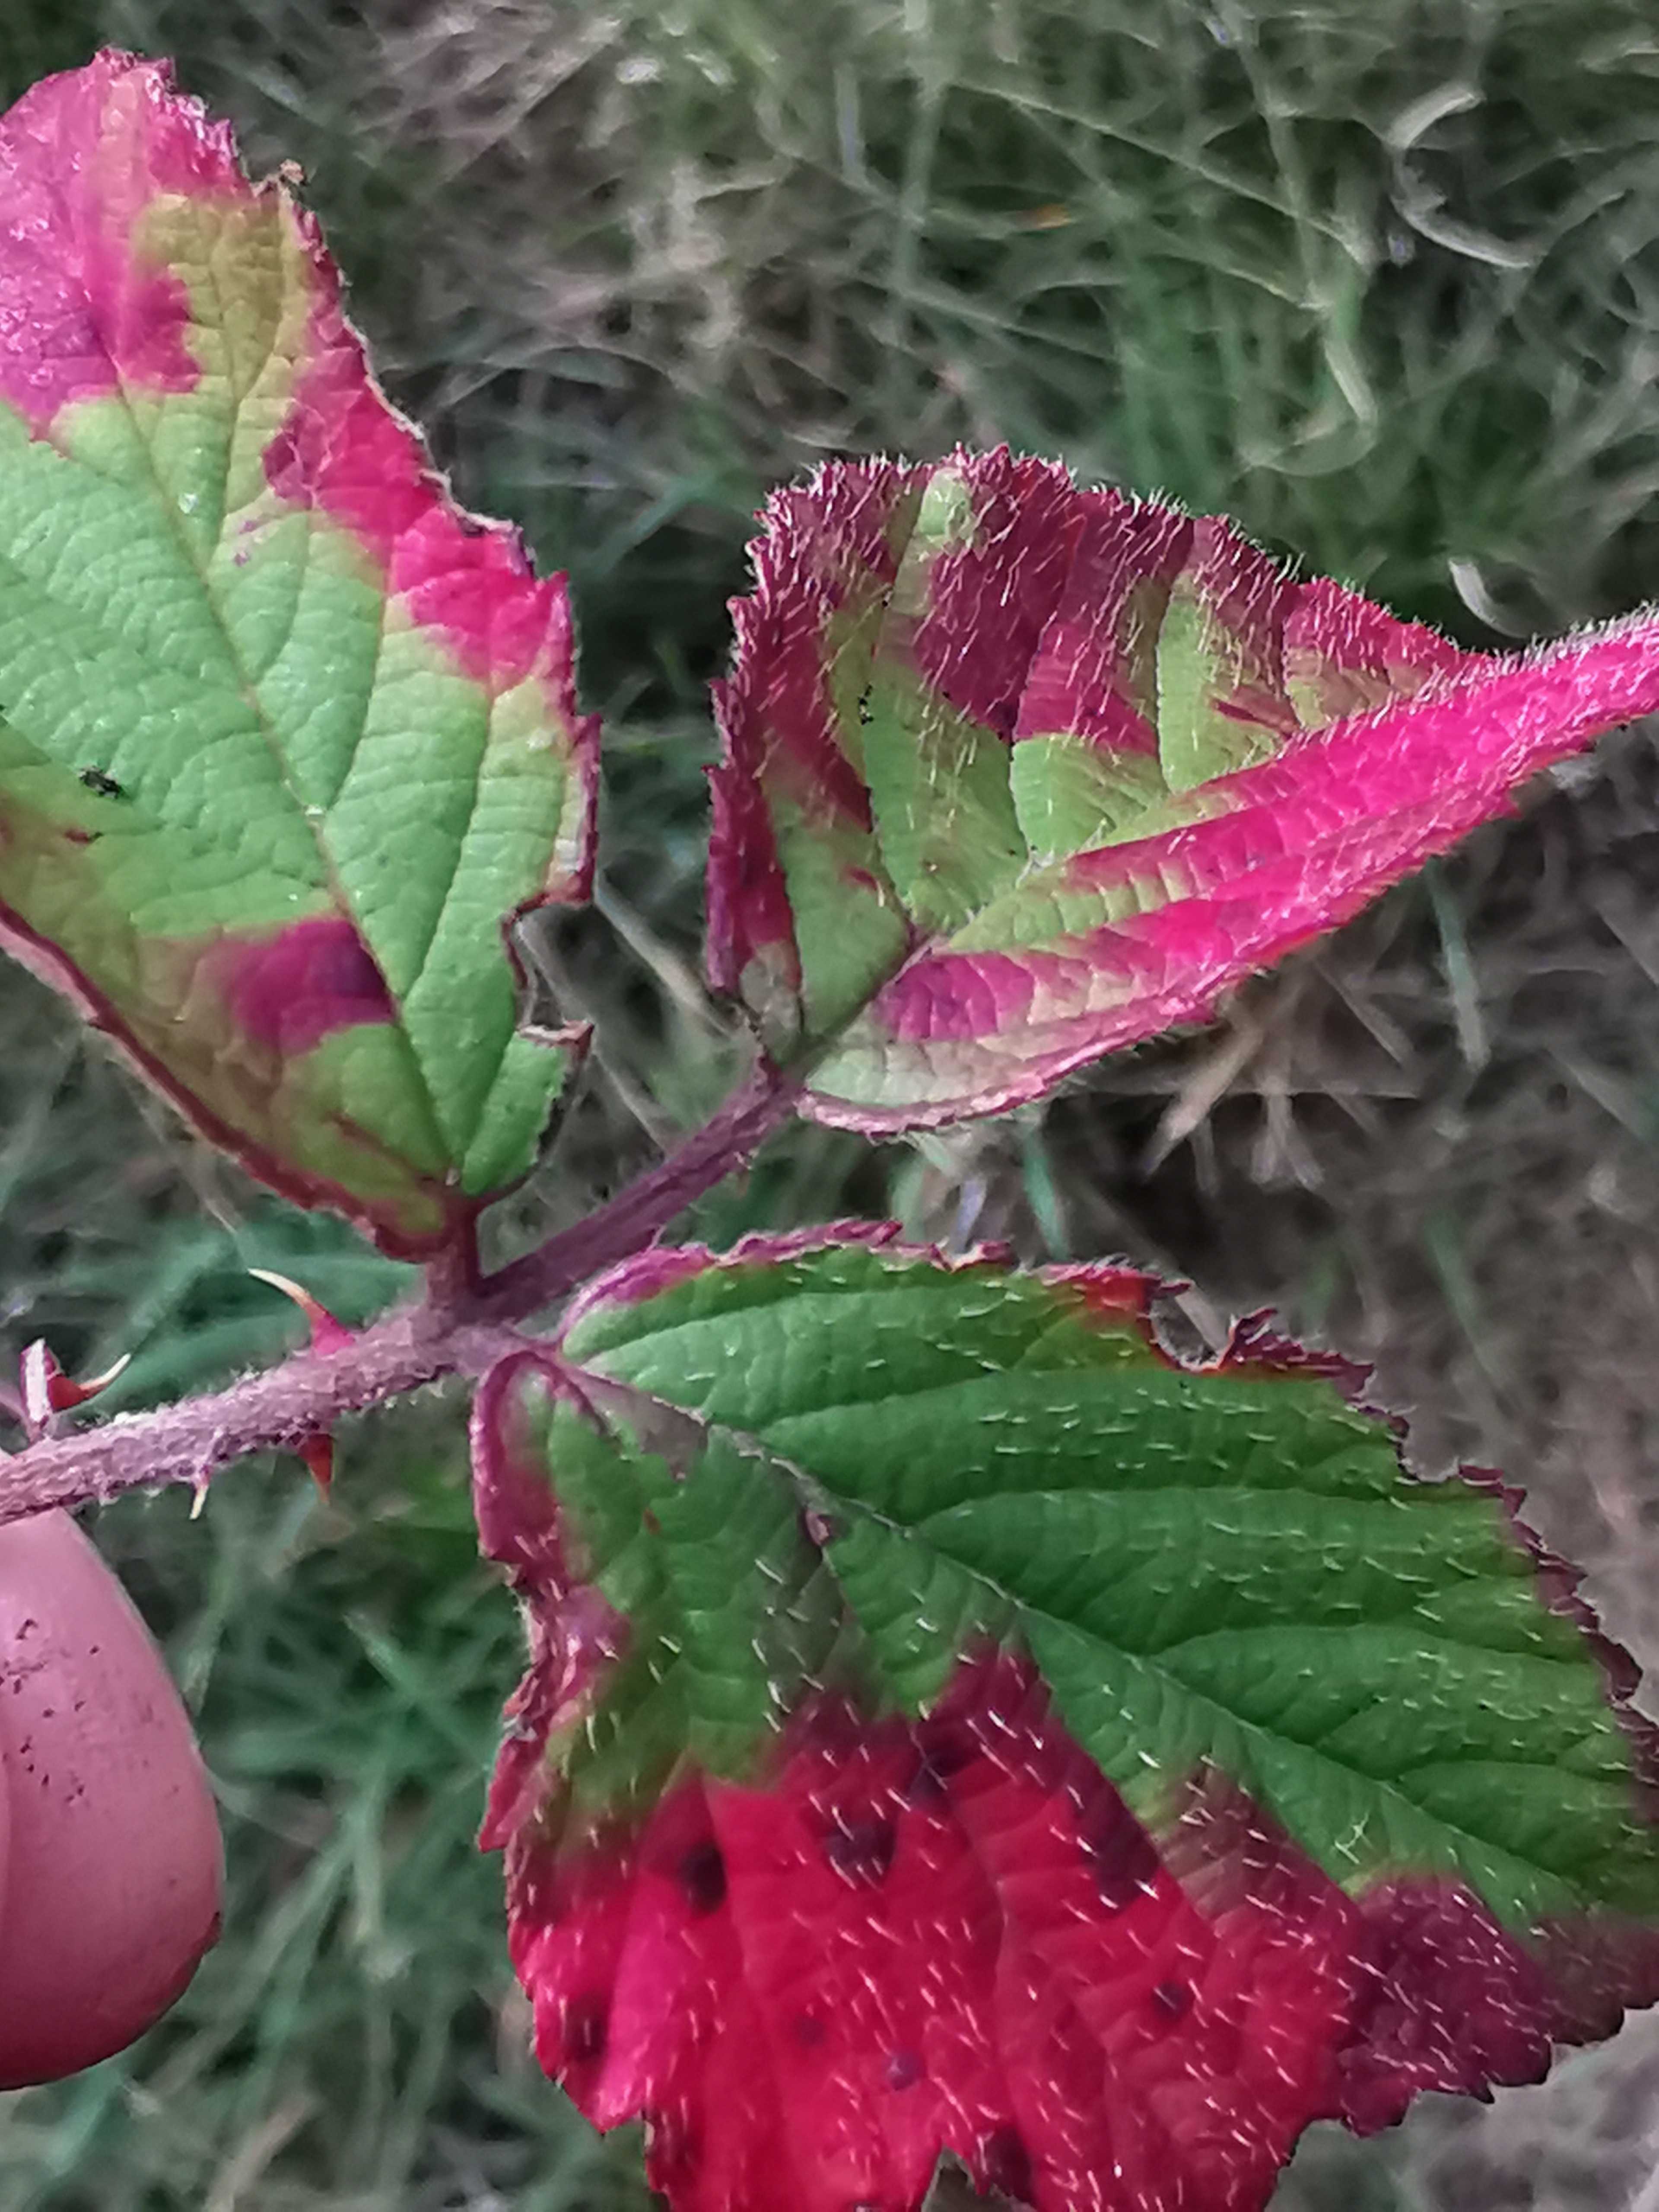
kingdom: Fungi
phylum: Basidiomycota
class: Pucciniomycetes
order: Pucciniales
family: Phragmidiaceae
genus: Phragmidium
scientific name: Phragmidium violaceum
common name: violet flercellerust
